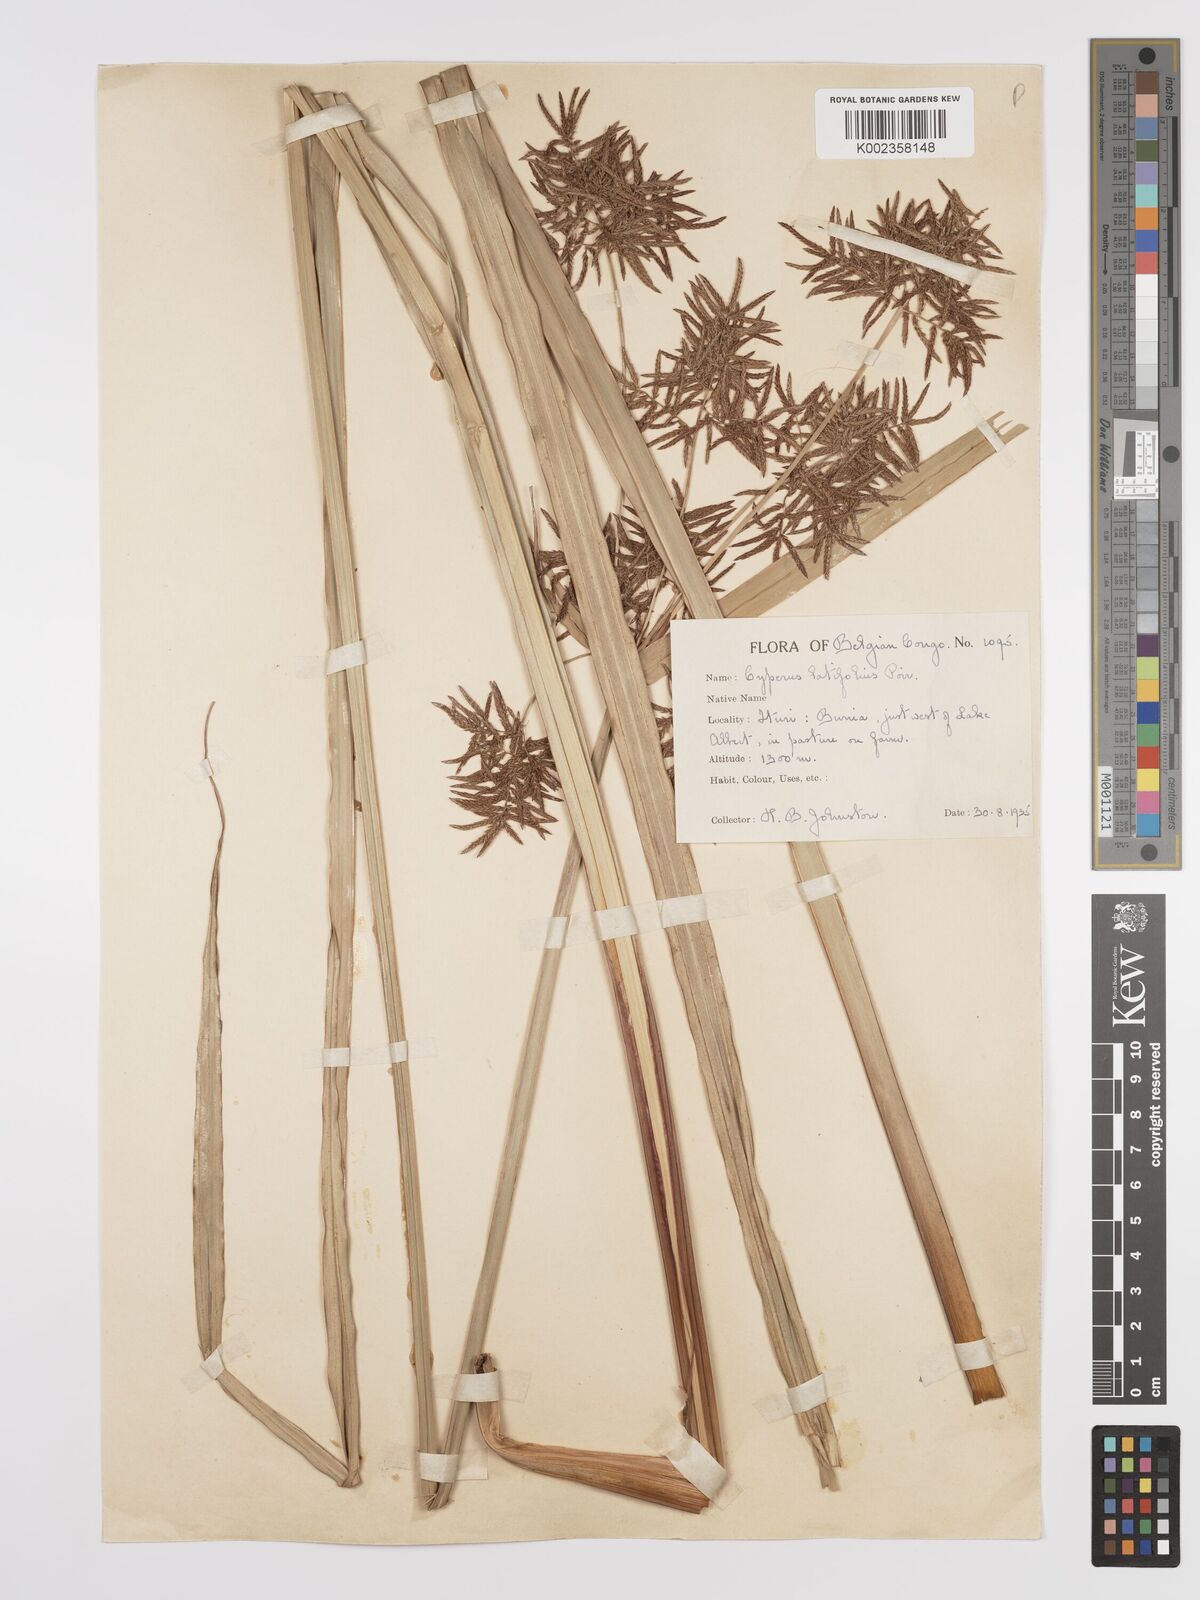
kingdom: Plantae
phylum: Tracheophyta
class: Liliopsida
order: Poales
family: Cyperaceae
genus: Cyperus
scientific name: Cyperus latifolius
